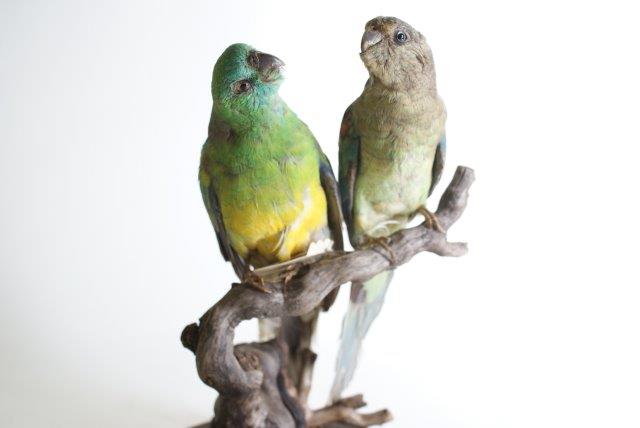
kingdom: Animalia
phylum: Chordata
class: Aves
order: Psittaciformes
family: Psittacidae
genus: Psephotus
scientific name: Psephotus haematonotus
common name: Red-rumped parrot
